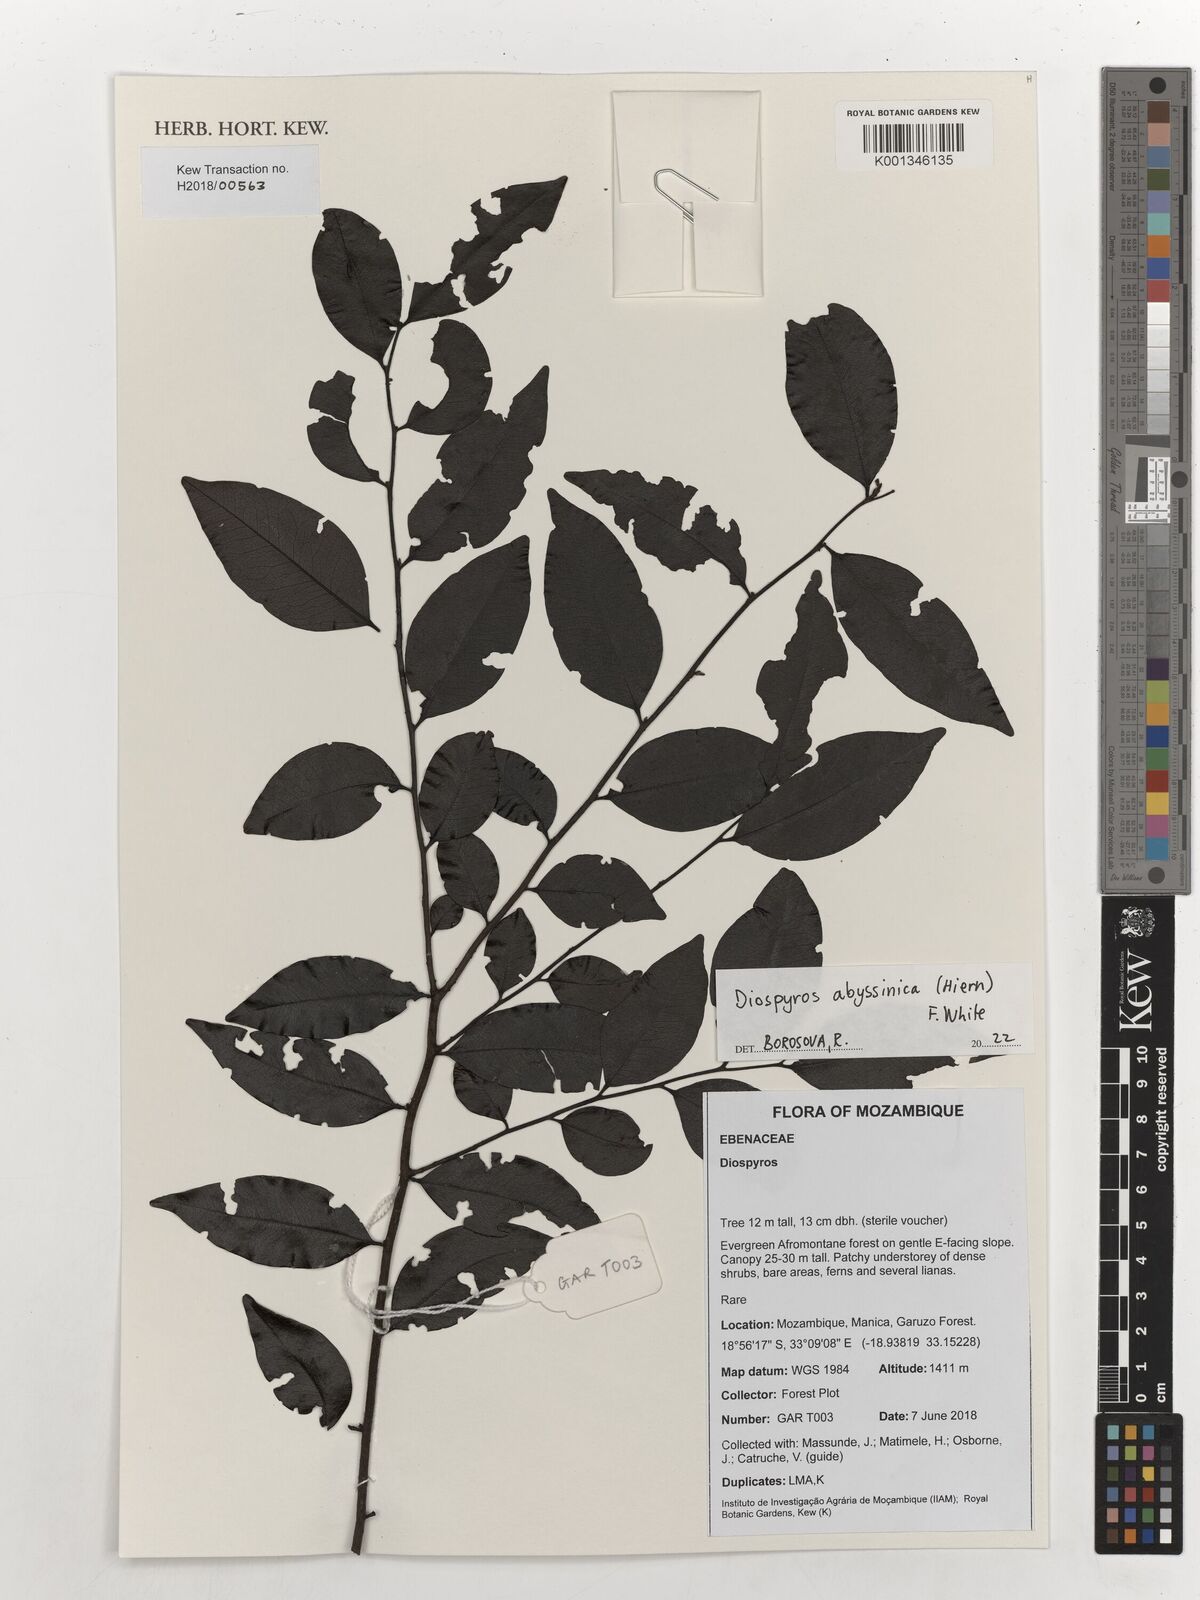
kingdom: Plantae
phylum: Tracheophyta
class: Magnoliopsida
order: Ericales
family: Ebenaceae
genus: Diospyros
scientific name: Diospyros abyssinica
